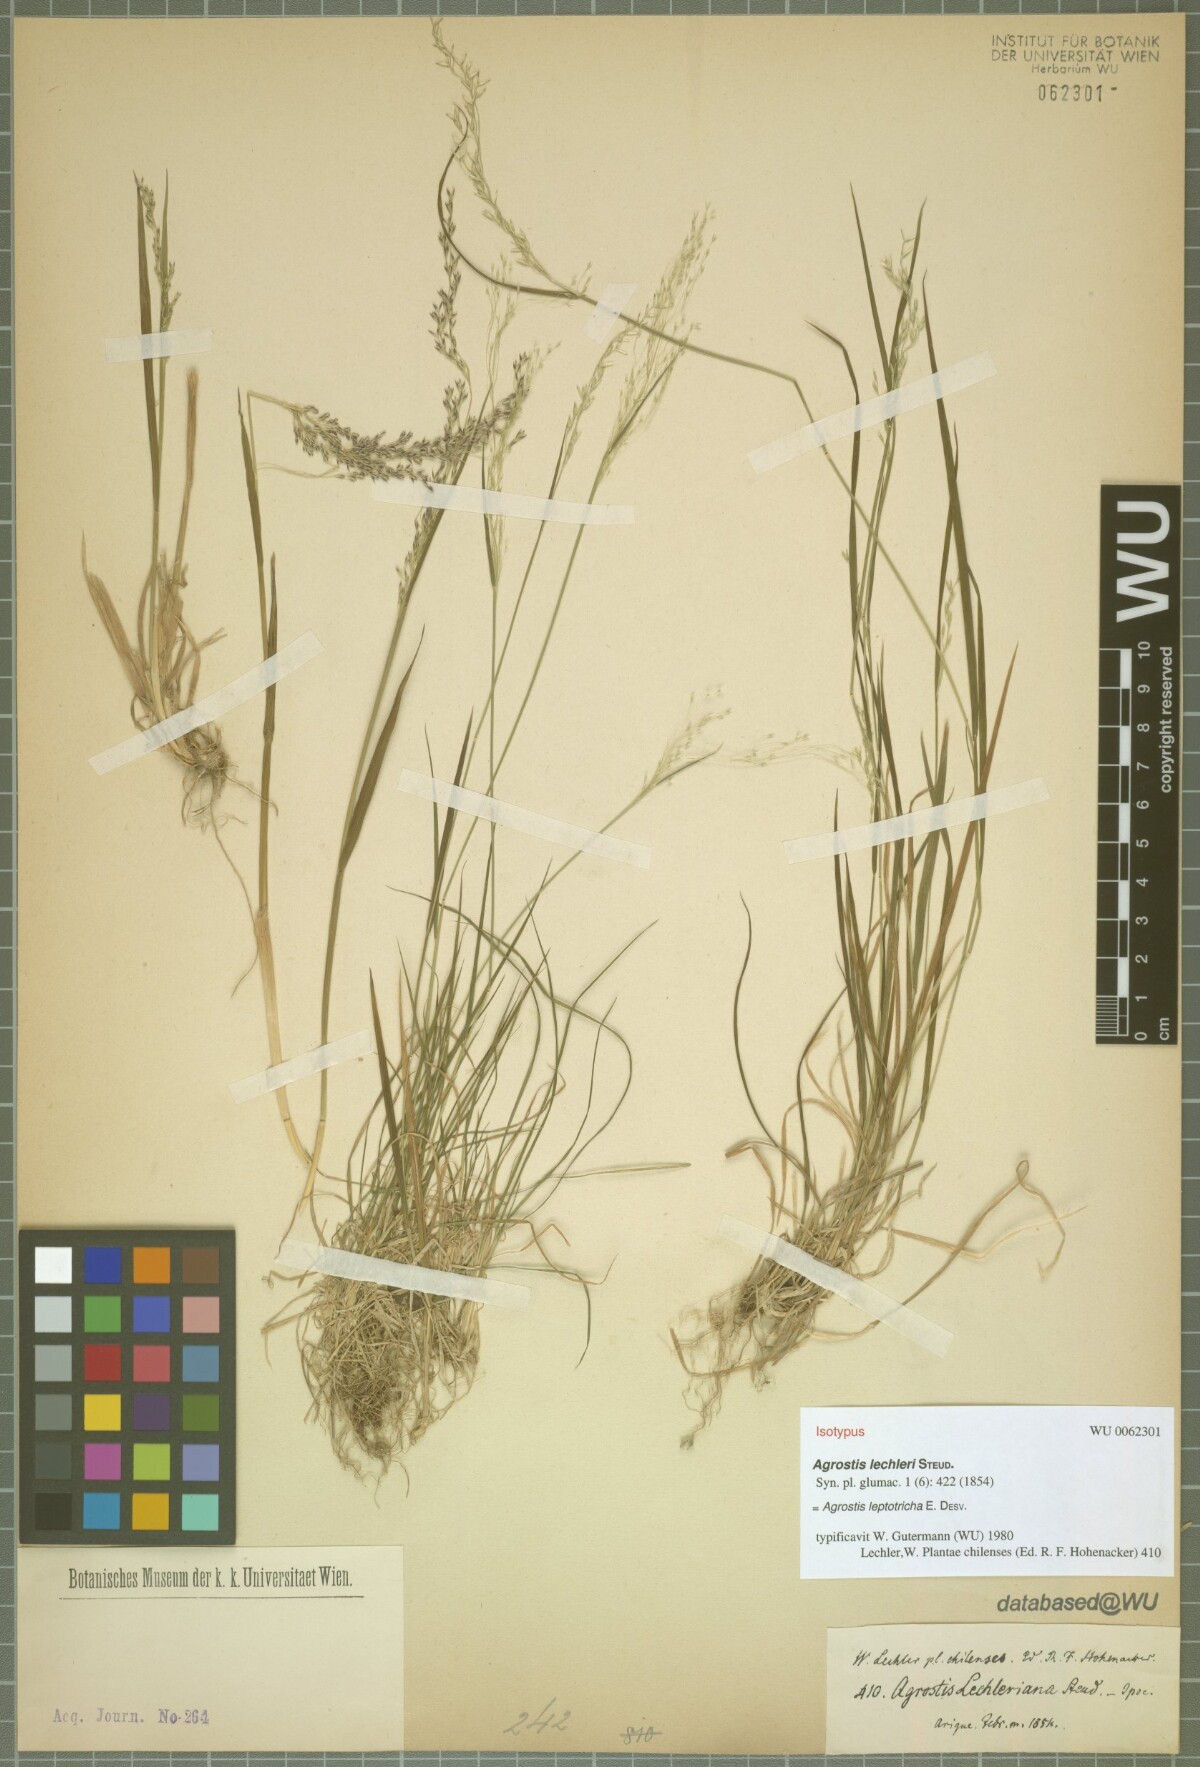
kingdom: Plantae
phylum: Tracheophyta
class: Liliopsida
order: Poales
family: Poaceae
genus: Agrostis
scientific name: Agrostis leptotricha
